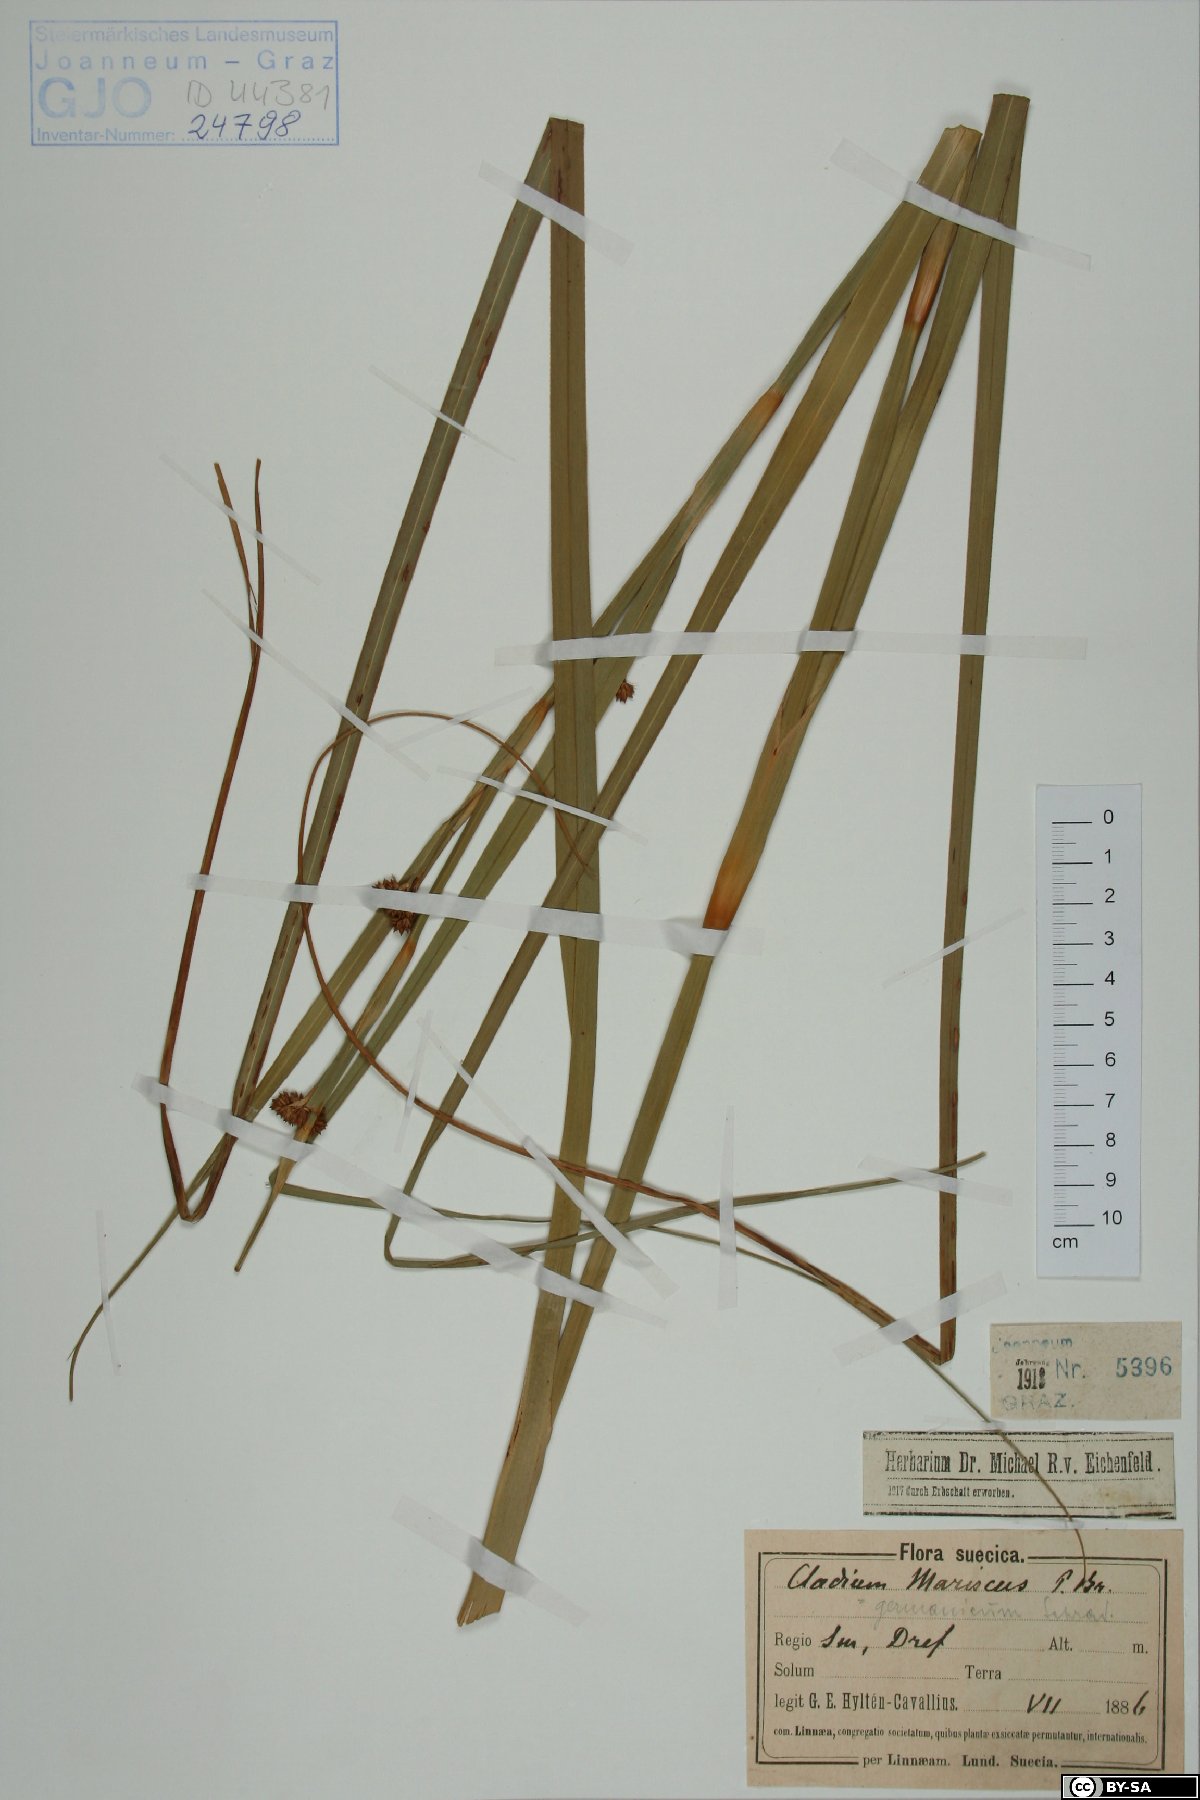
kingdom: Plantae
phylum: Tracheophyta
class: Liliopsida
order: Poales
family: Cyperaceae
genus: Cladium
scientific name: Cladium mariscus
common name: Great fen-sedge
